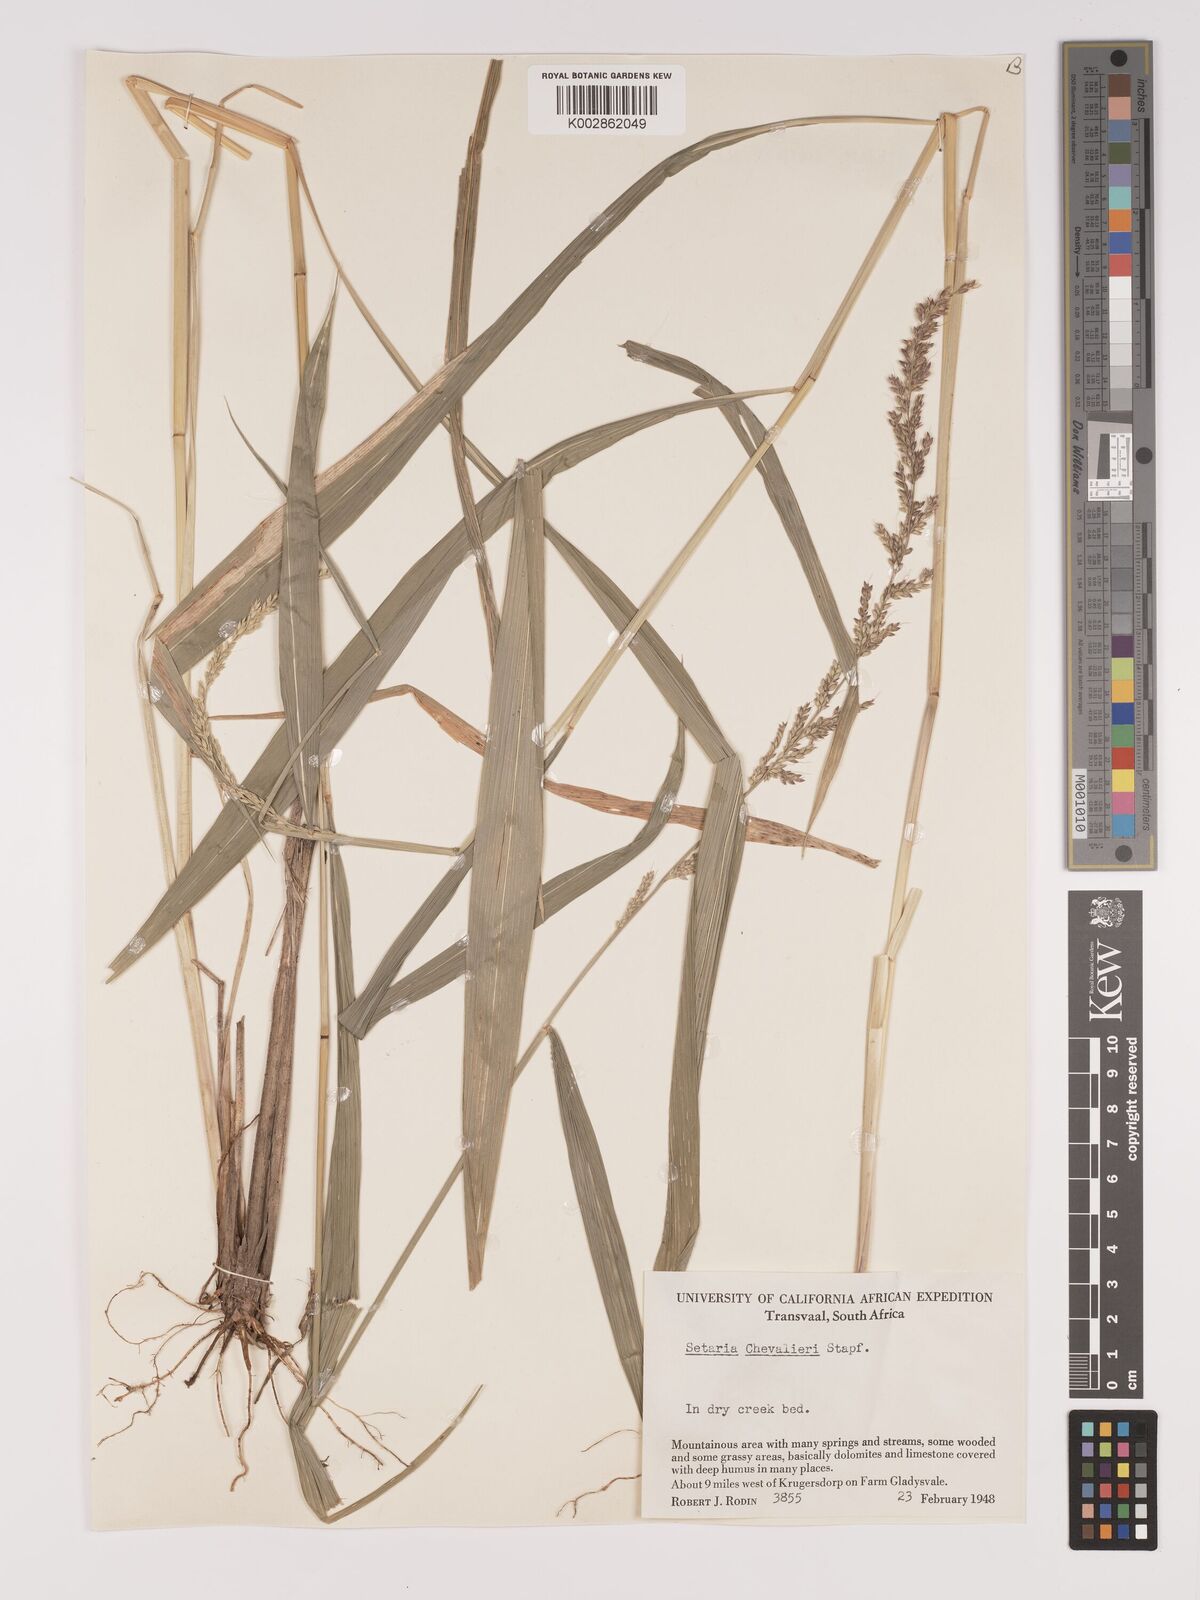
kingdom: Plantae
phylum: Tracheophyta
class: Liliopsida
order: Poales
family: Poaceae
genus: Setaria
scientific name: Setaria megaphylla
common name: Bigleaf bristlegrass
